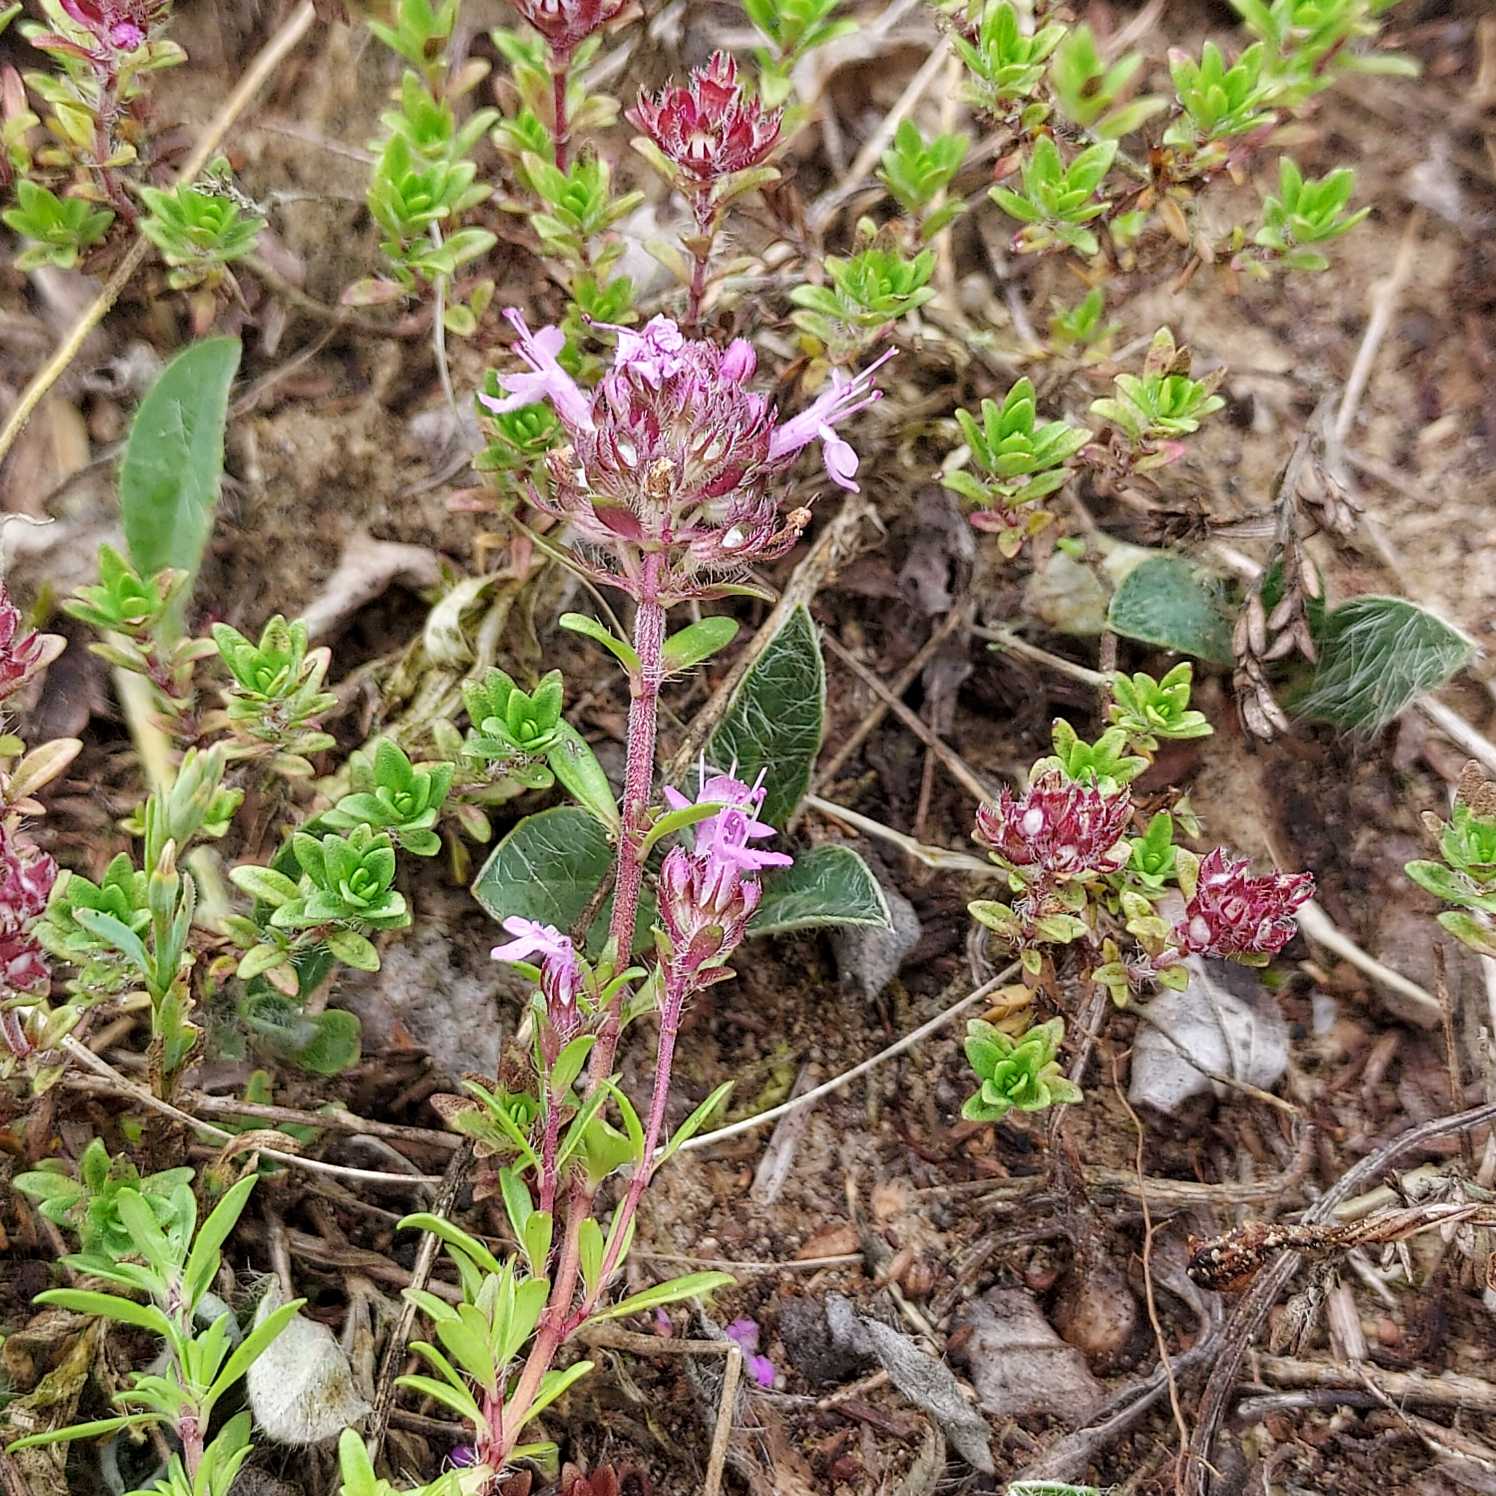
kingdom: Plantae
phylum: Tracheophyta
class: Magnoliopsida
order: Lamiales
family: Lamiaceae
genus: Thymus
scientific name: Thymus serpyllum
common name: Smalbladet timian
